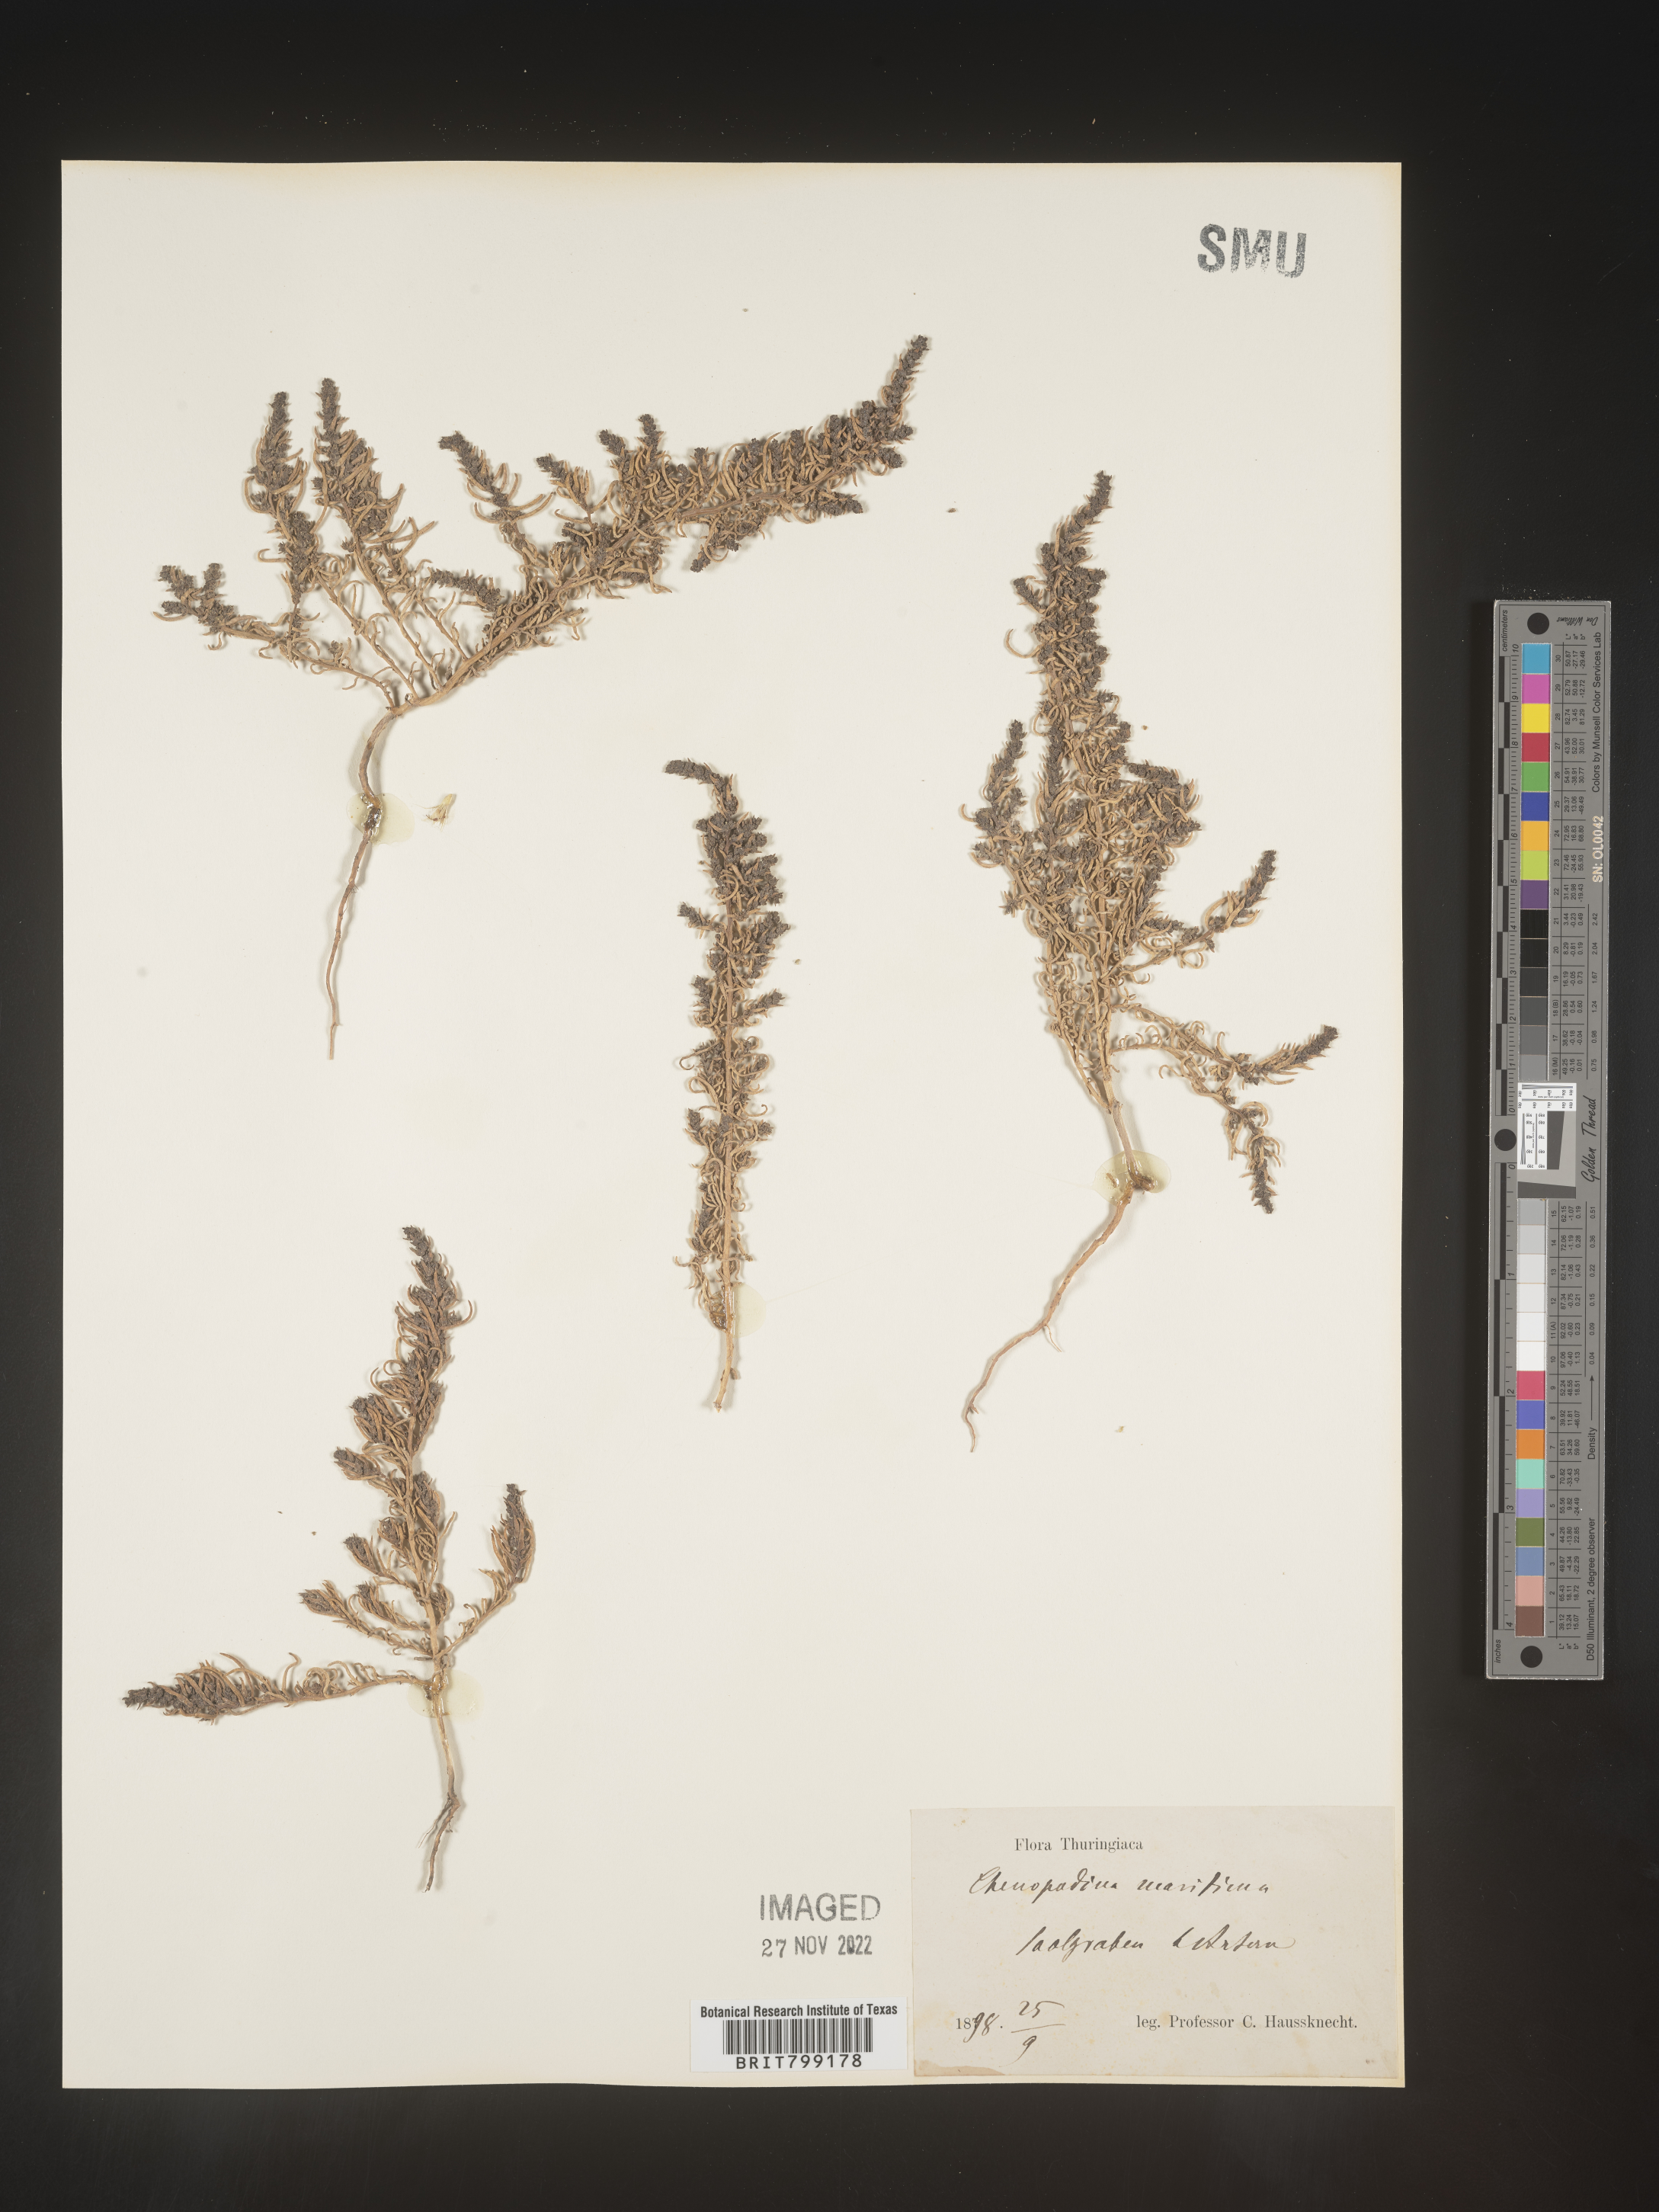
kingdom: Plantae
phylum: Tracheophyta
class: Magnoliopsida
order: Caryophyllales
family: Amaranthaceae
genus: Chenopodium
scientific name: Chenopodium
